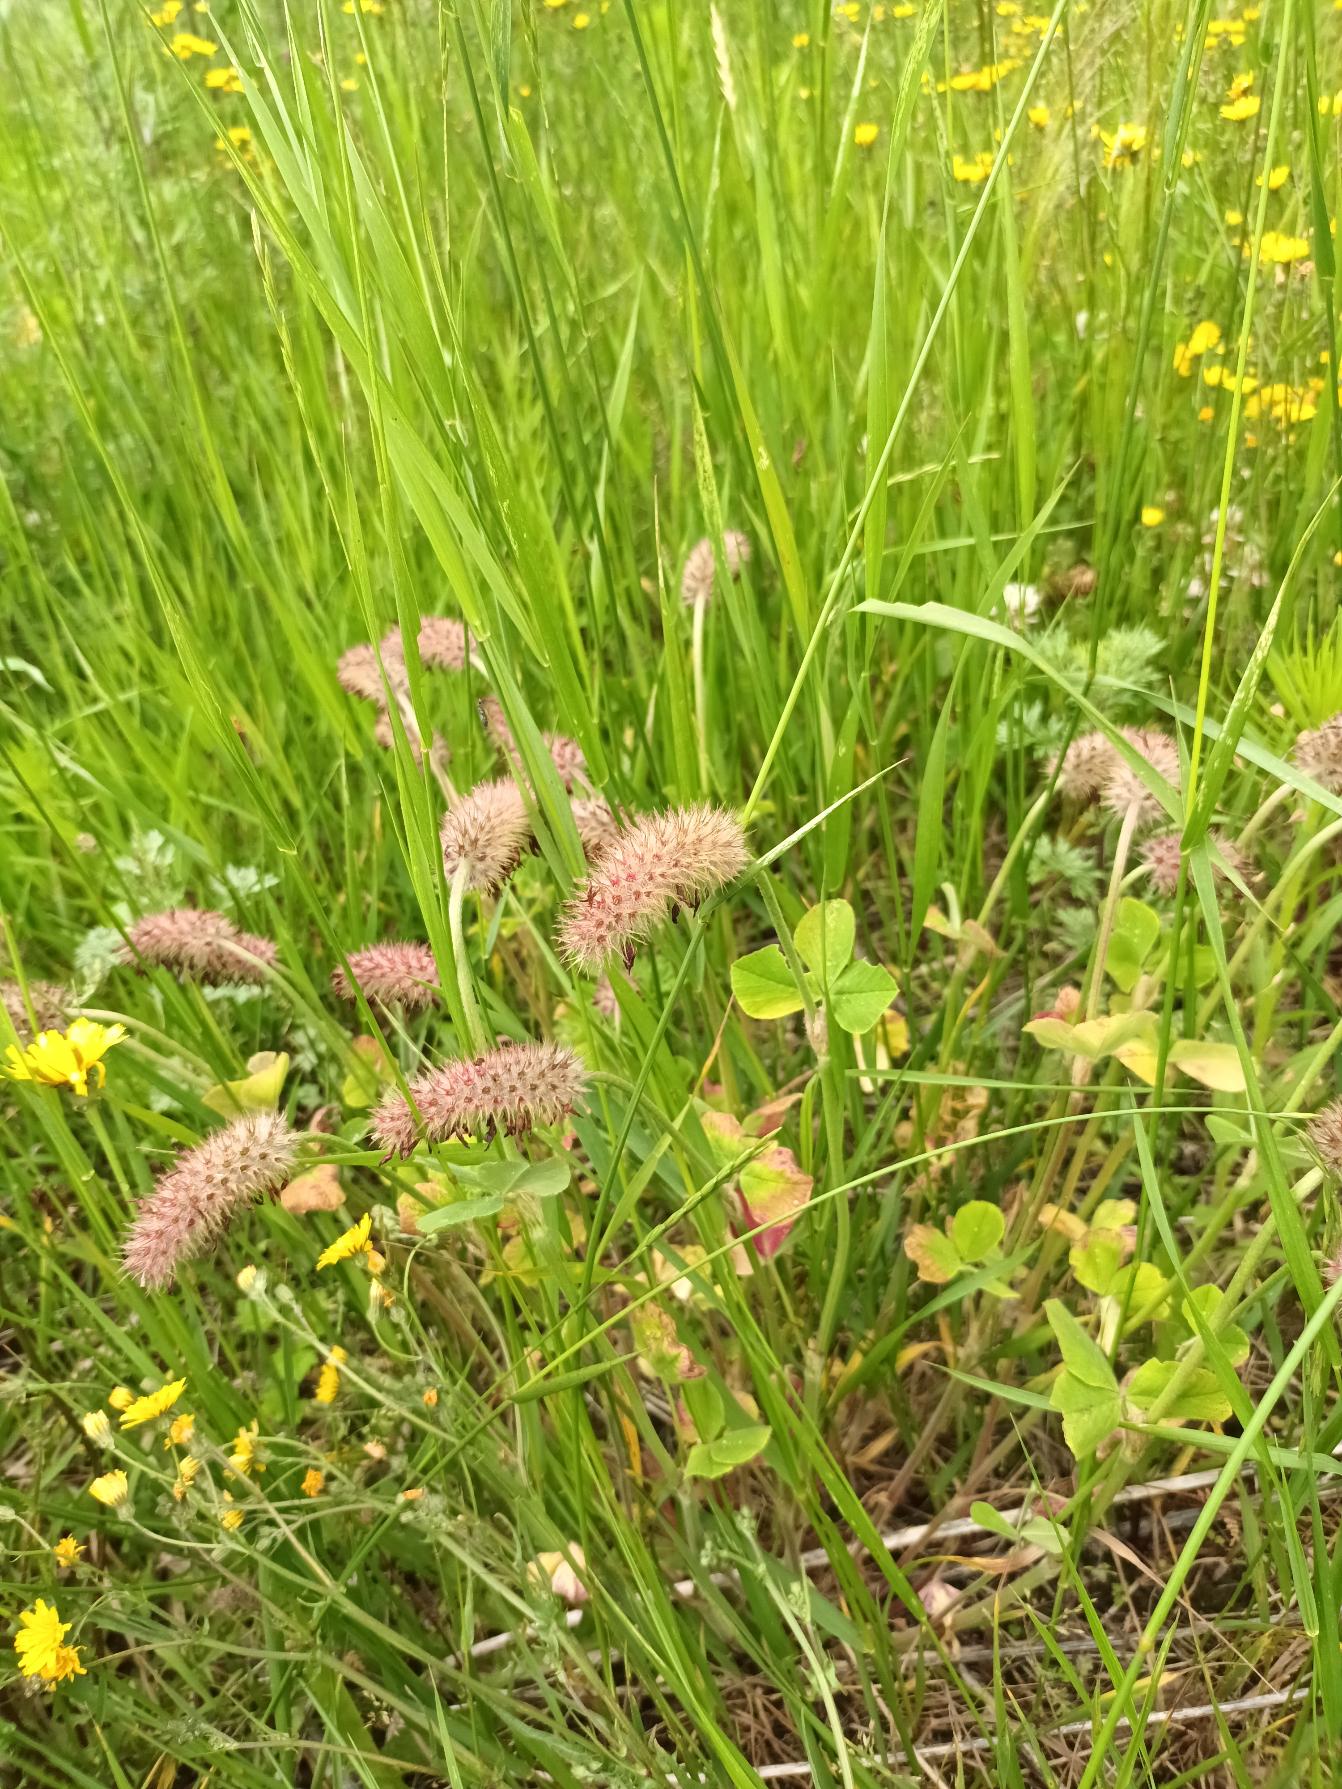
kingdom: Plantae
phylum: Tracheophyta
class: Magnoliopsida
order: Fabales
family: Fabaceae
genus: Trifolium
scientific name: Trifolium incarnatum
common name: Blod-kløver
